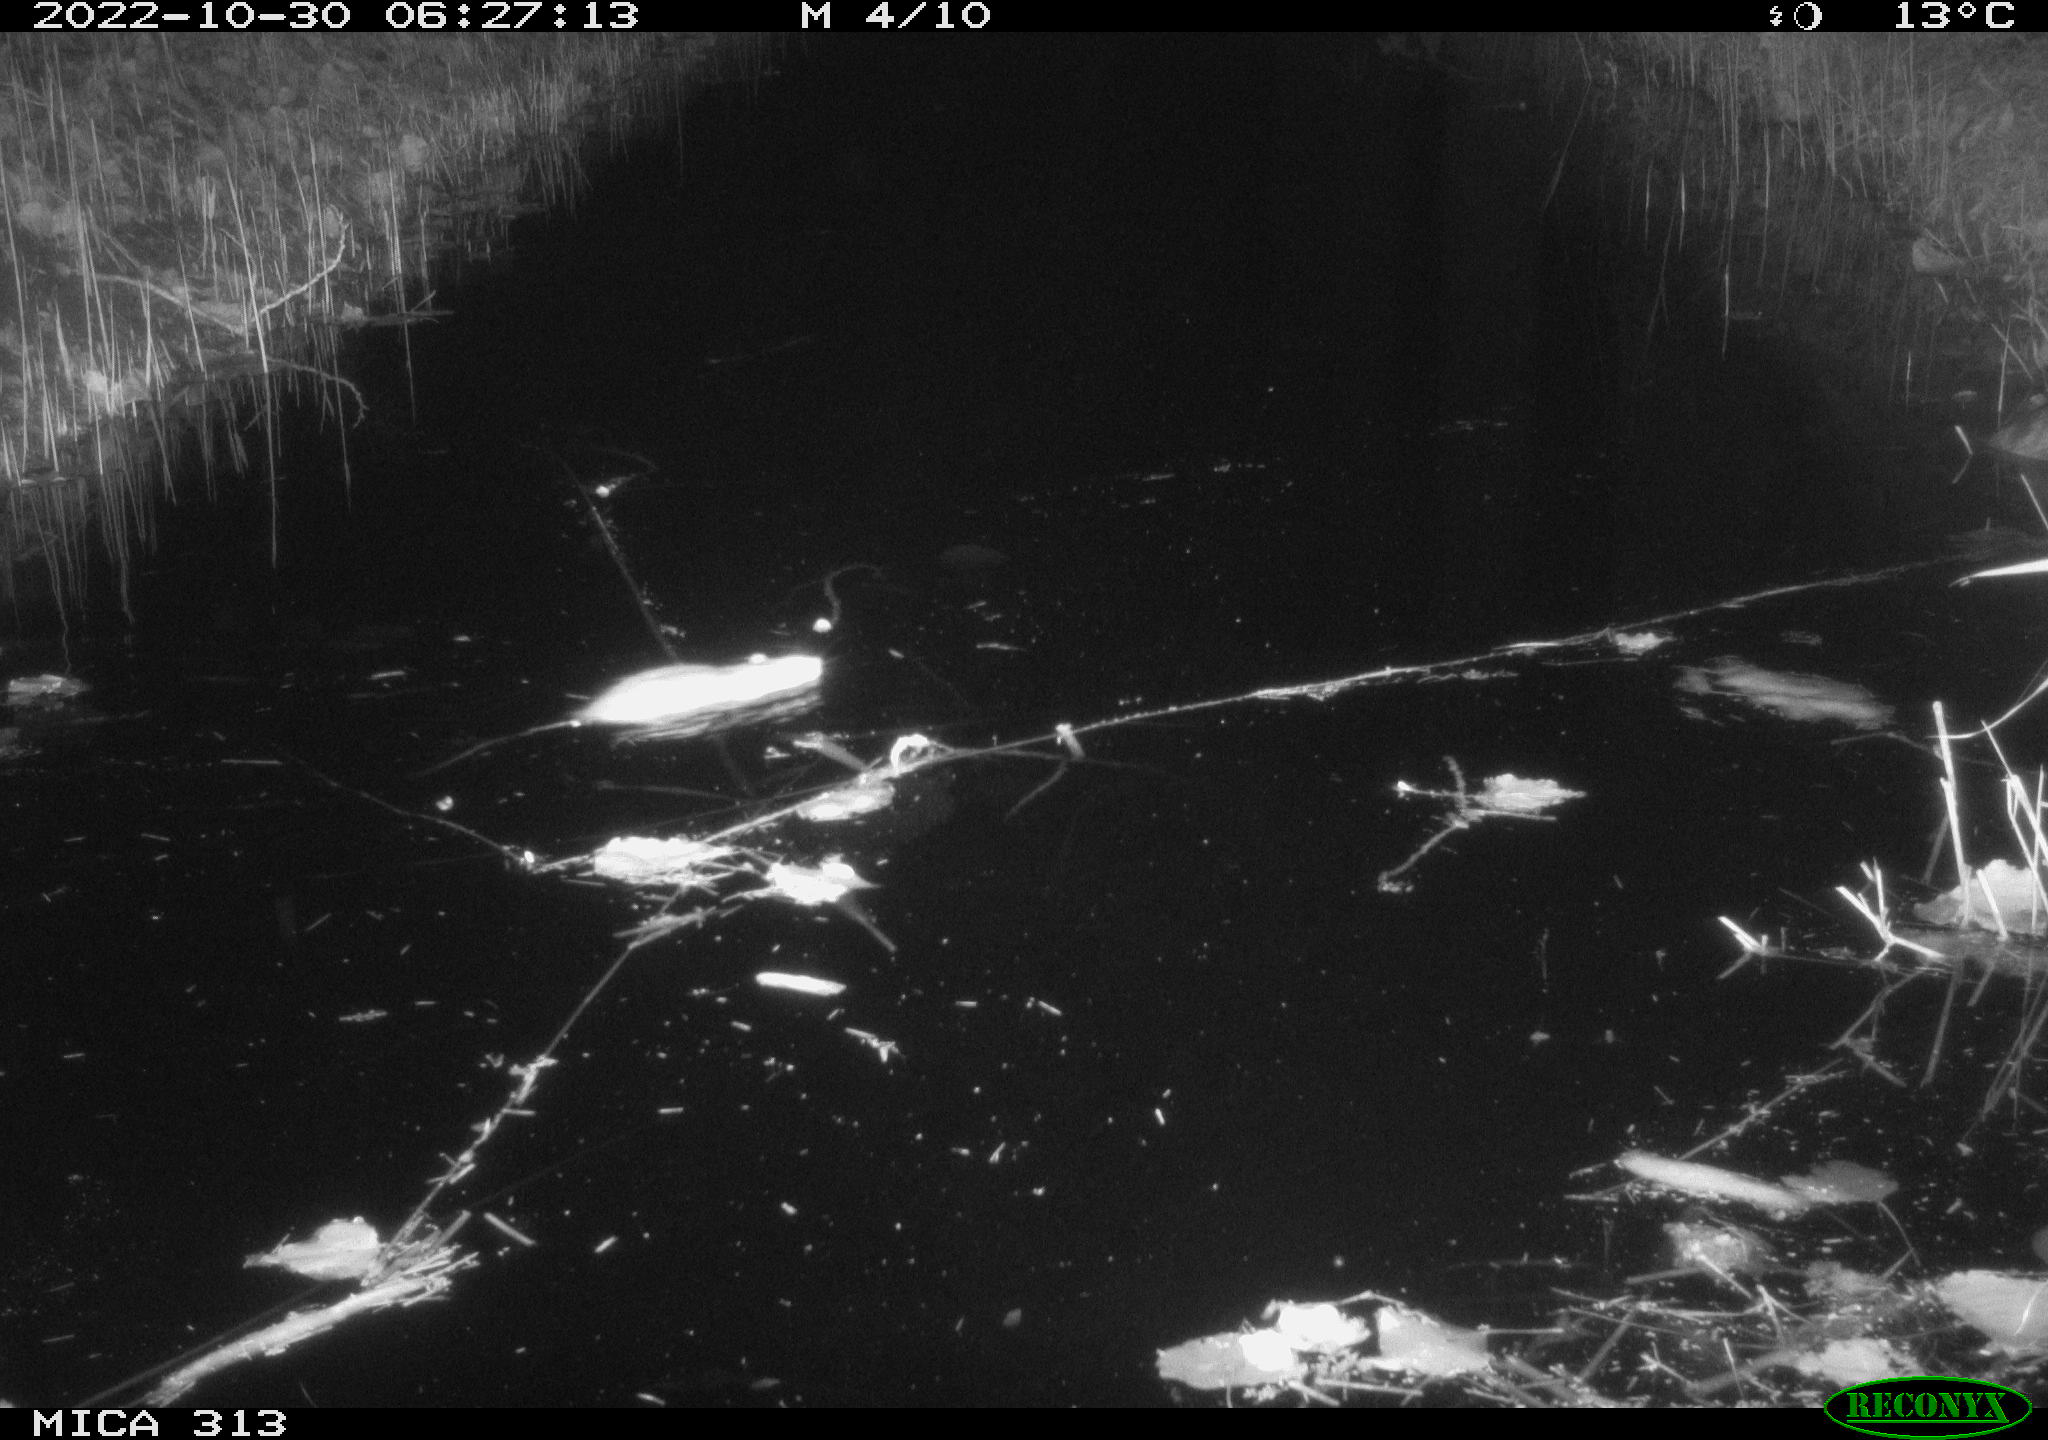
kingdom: Animalia
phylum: Chordata
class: Mammalia
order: Rodentia
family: Muridae
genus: Rattus
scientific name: Rattus norvegicus
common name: Brown rat
